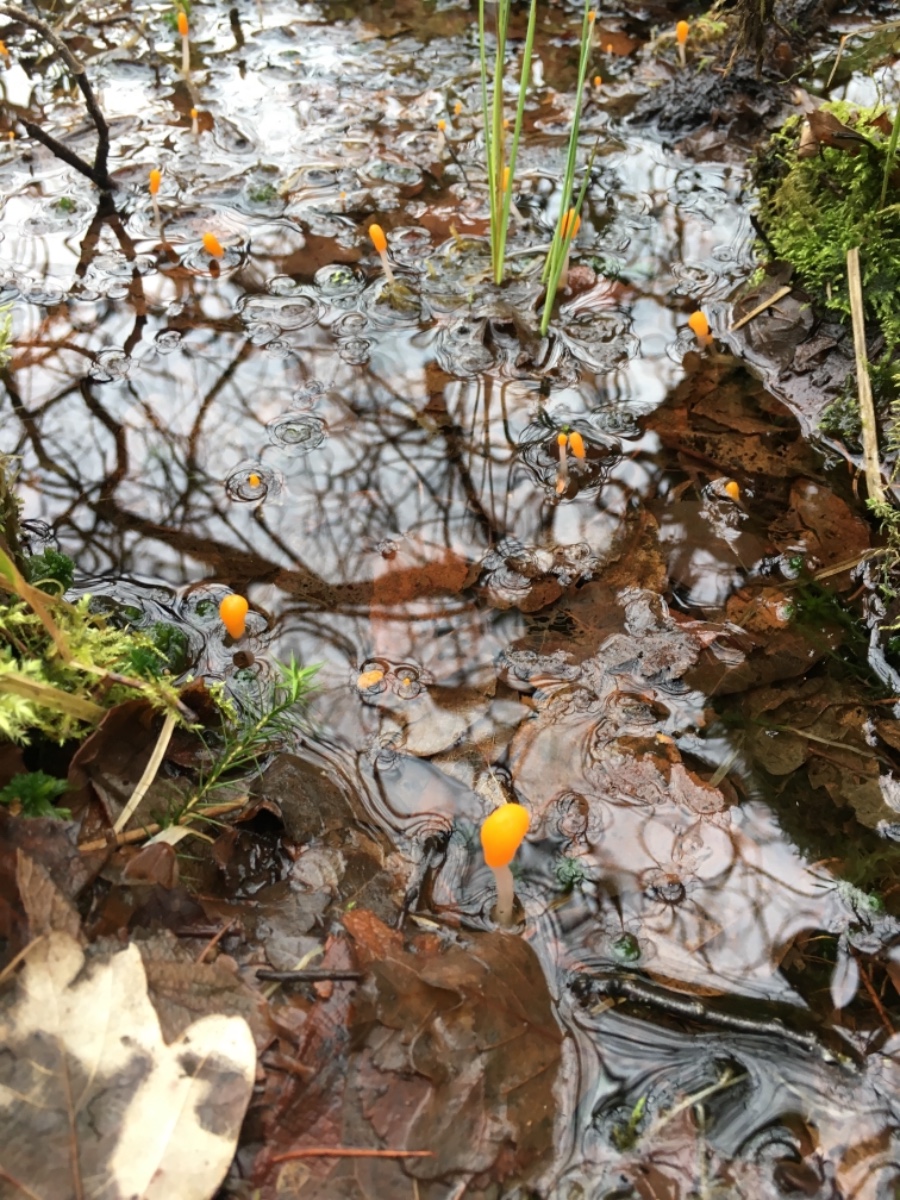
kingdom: Fungi
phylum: Ascomycota
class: Leotiomycetes
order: Helotiales
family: Cenangiaceae
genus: Mitrula
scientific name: Mitrula paludosa
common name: gul nøkketunge
